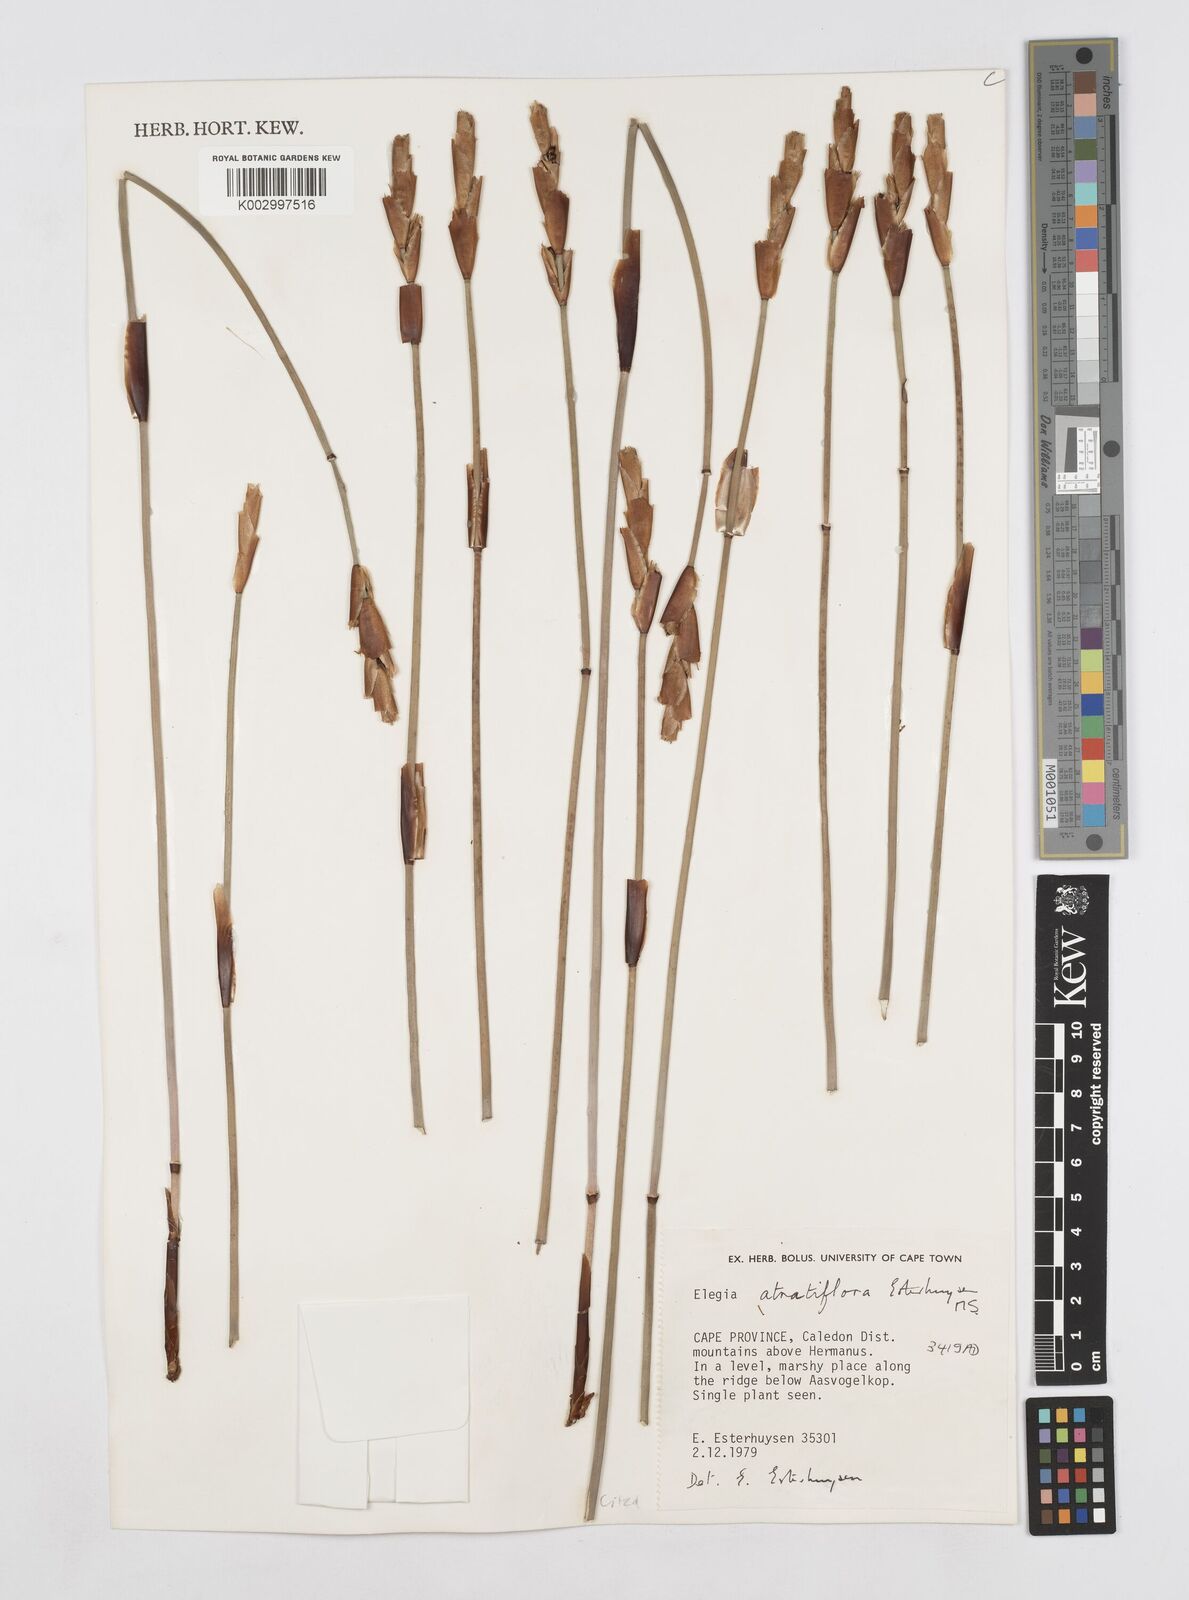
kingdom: Plantae
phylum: Tracheophyta
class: Liliopsida
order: Poales
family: Restionaceae
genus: Elegia
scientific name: Elegia atratiflora
